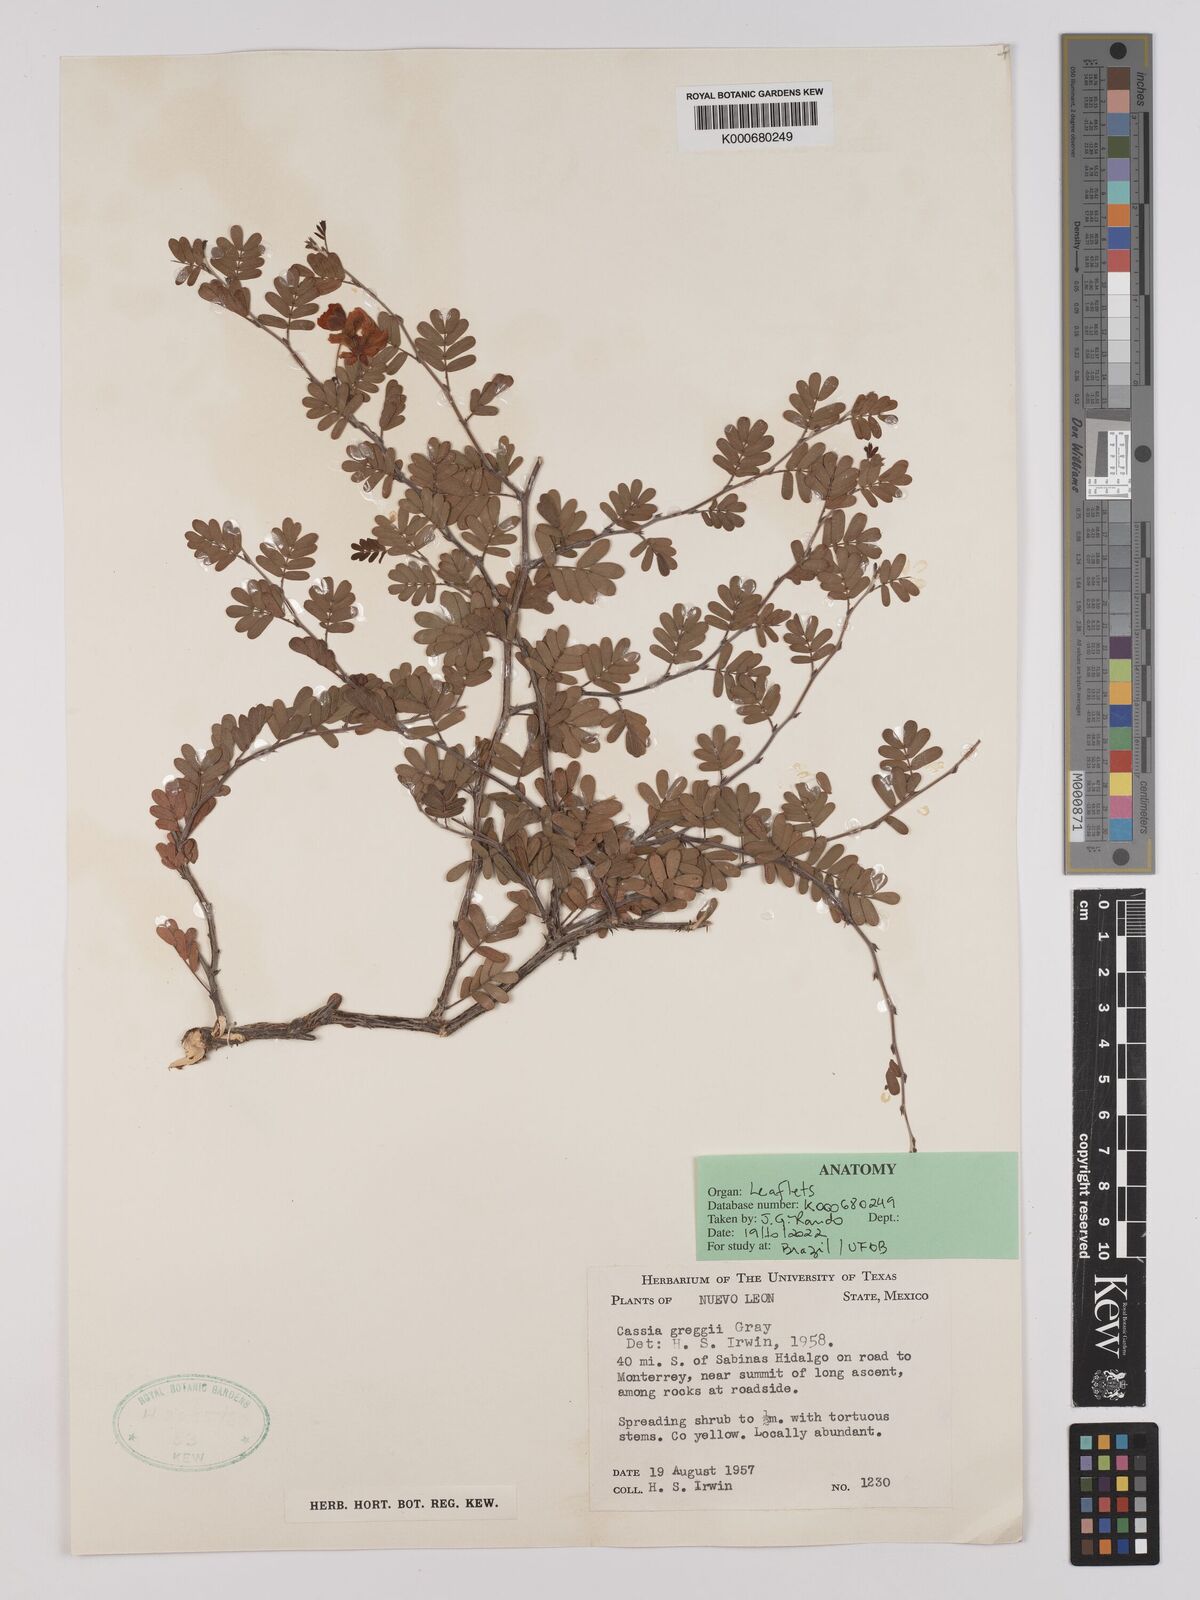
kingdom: Plantae
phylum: Tracheophyta
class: Magnoliopsida
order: Fabales
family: Fabaceae
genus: Chamaecrista
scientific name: Chamaecrista greggii
